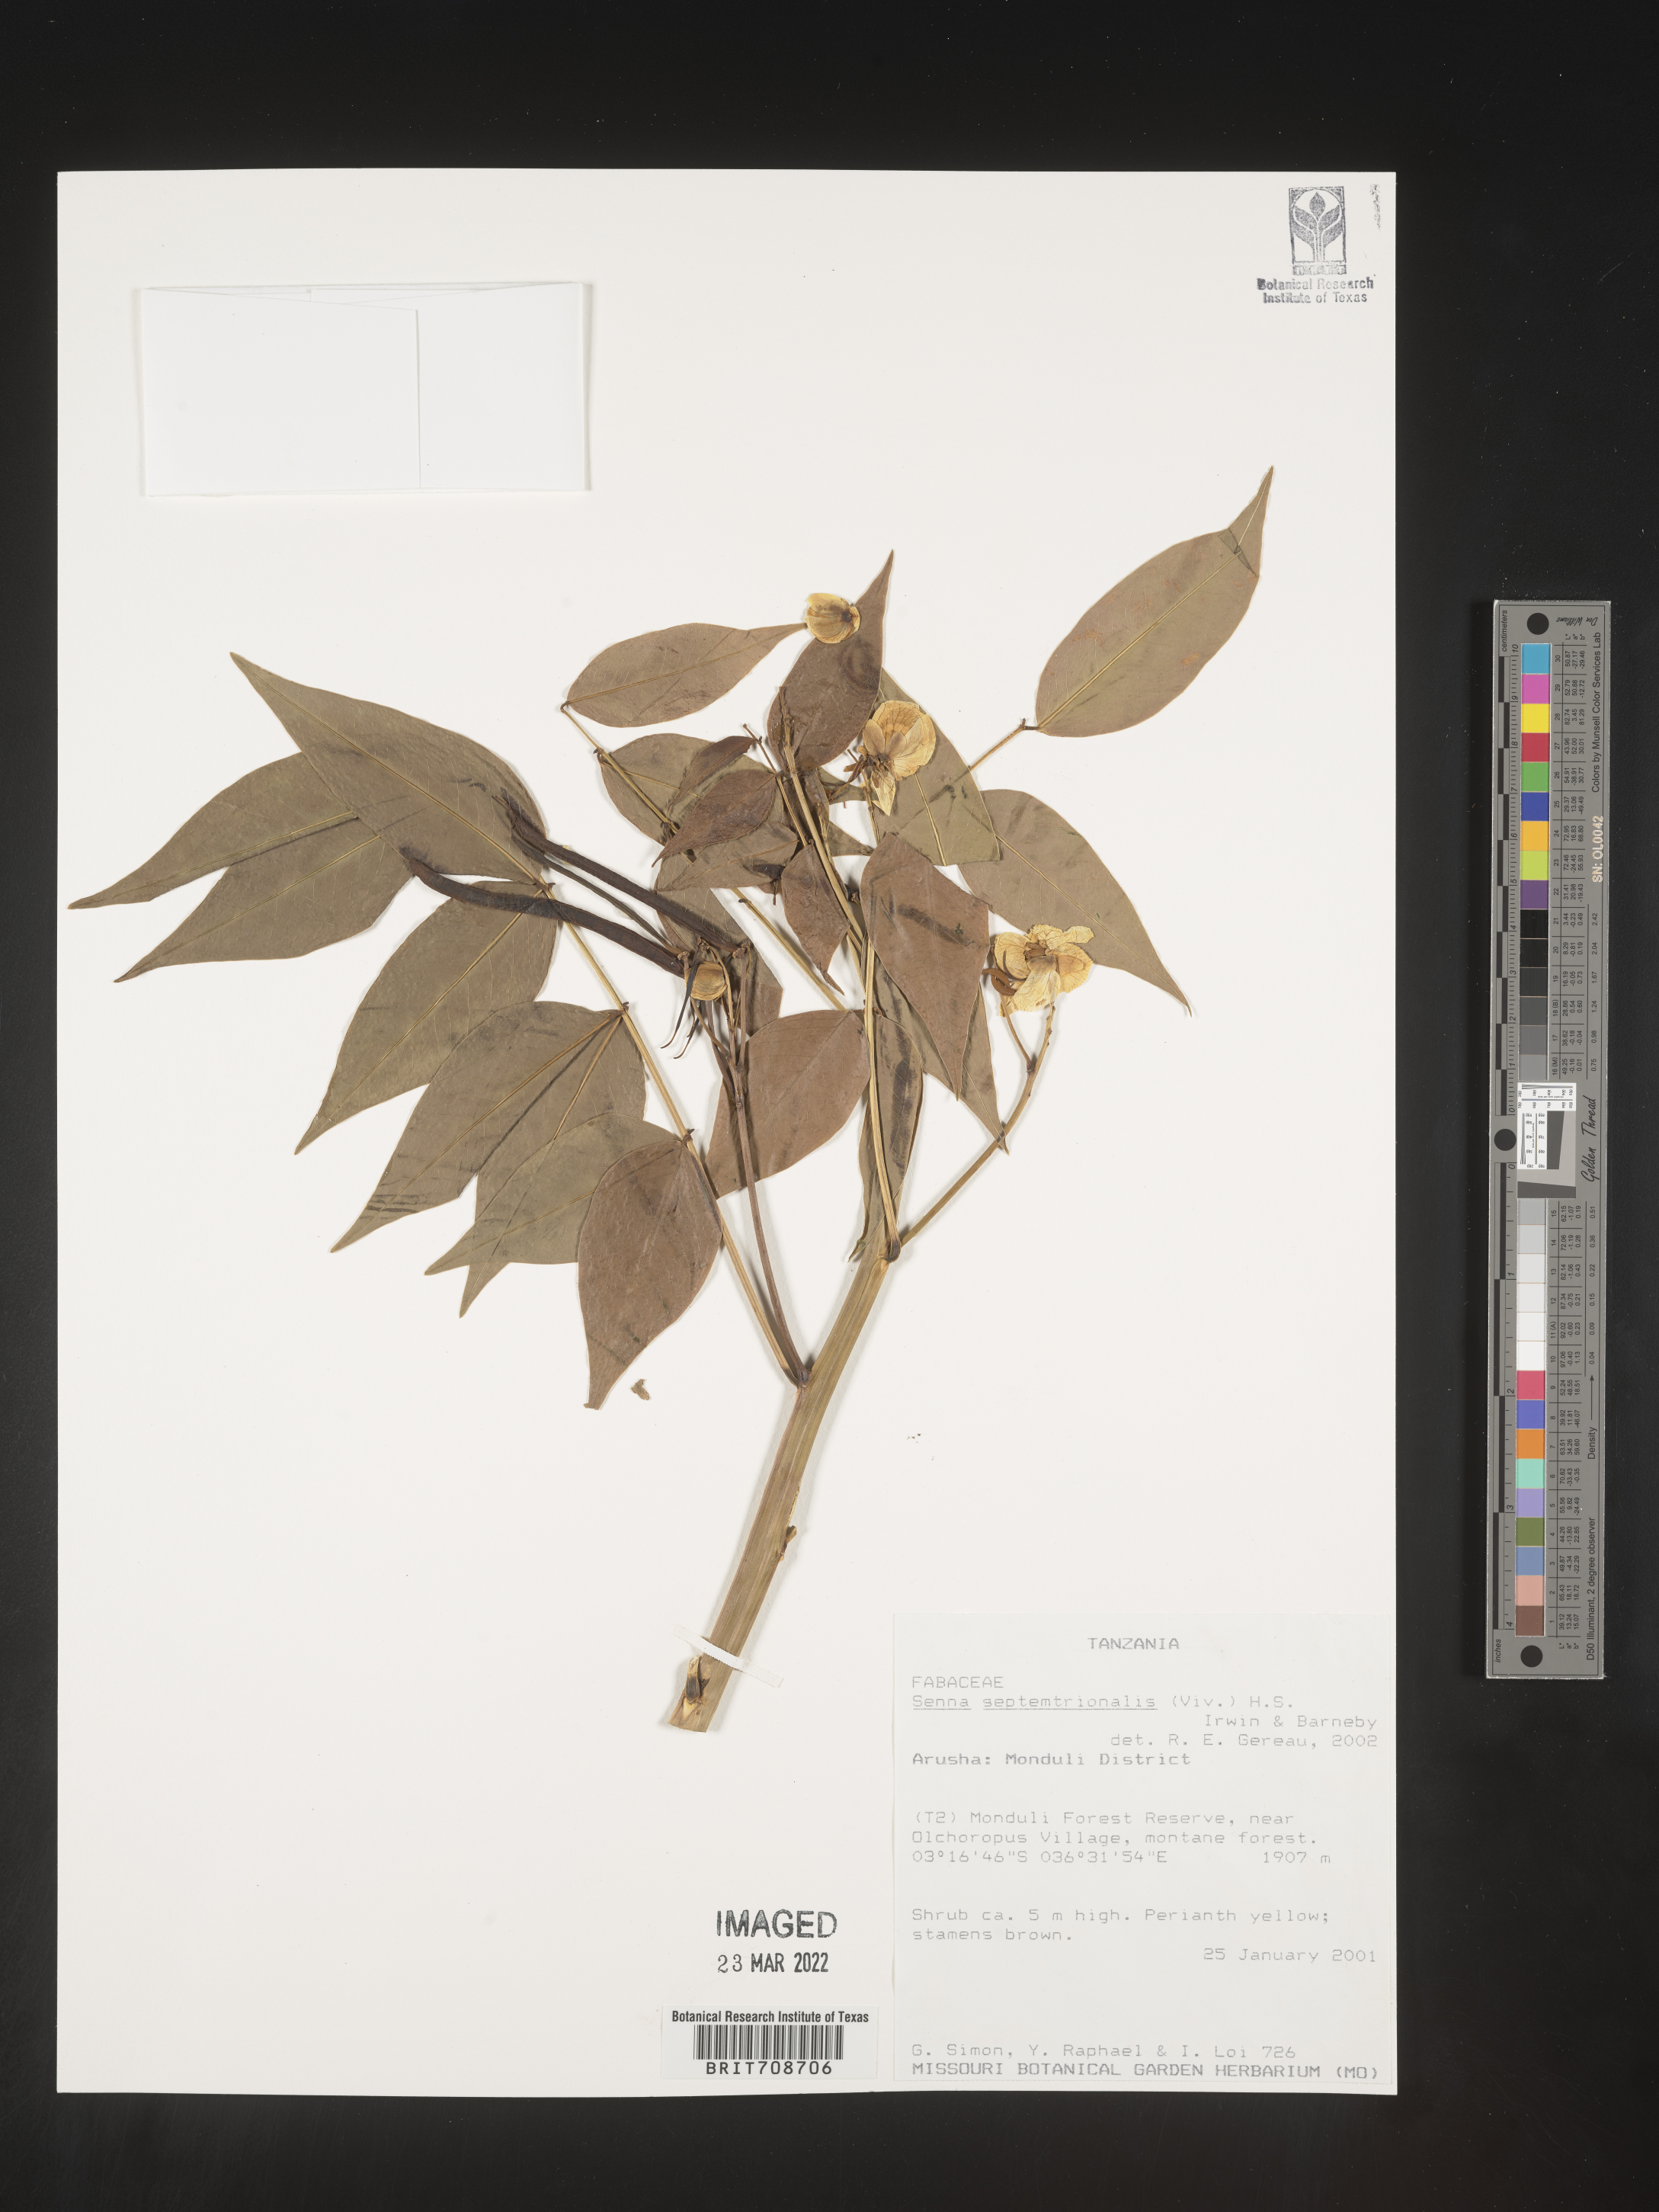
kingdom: Plantae
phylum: Tracheophyta
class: Magnoliopsida
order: Fabales
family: Fabaceae
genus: Senna
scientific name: Senna
